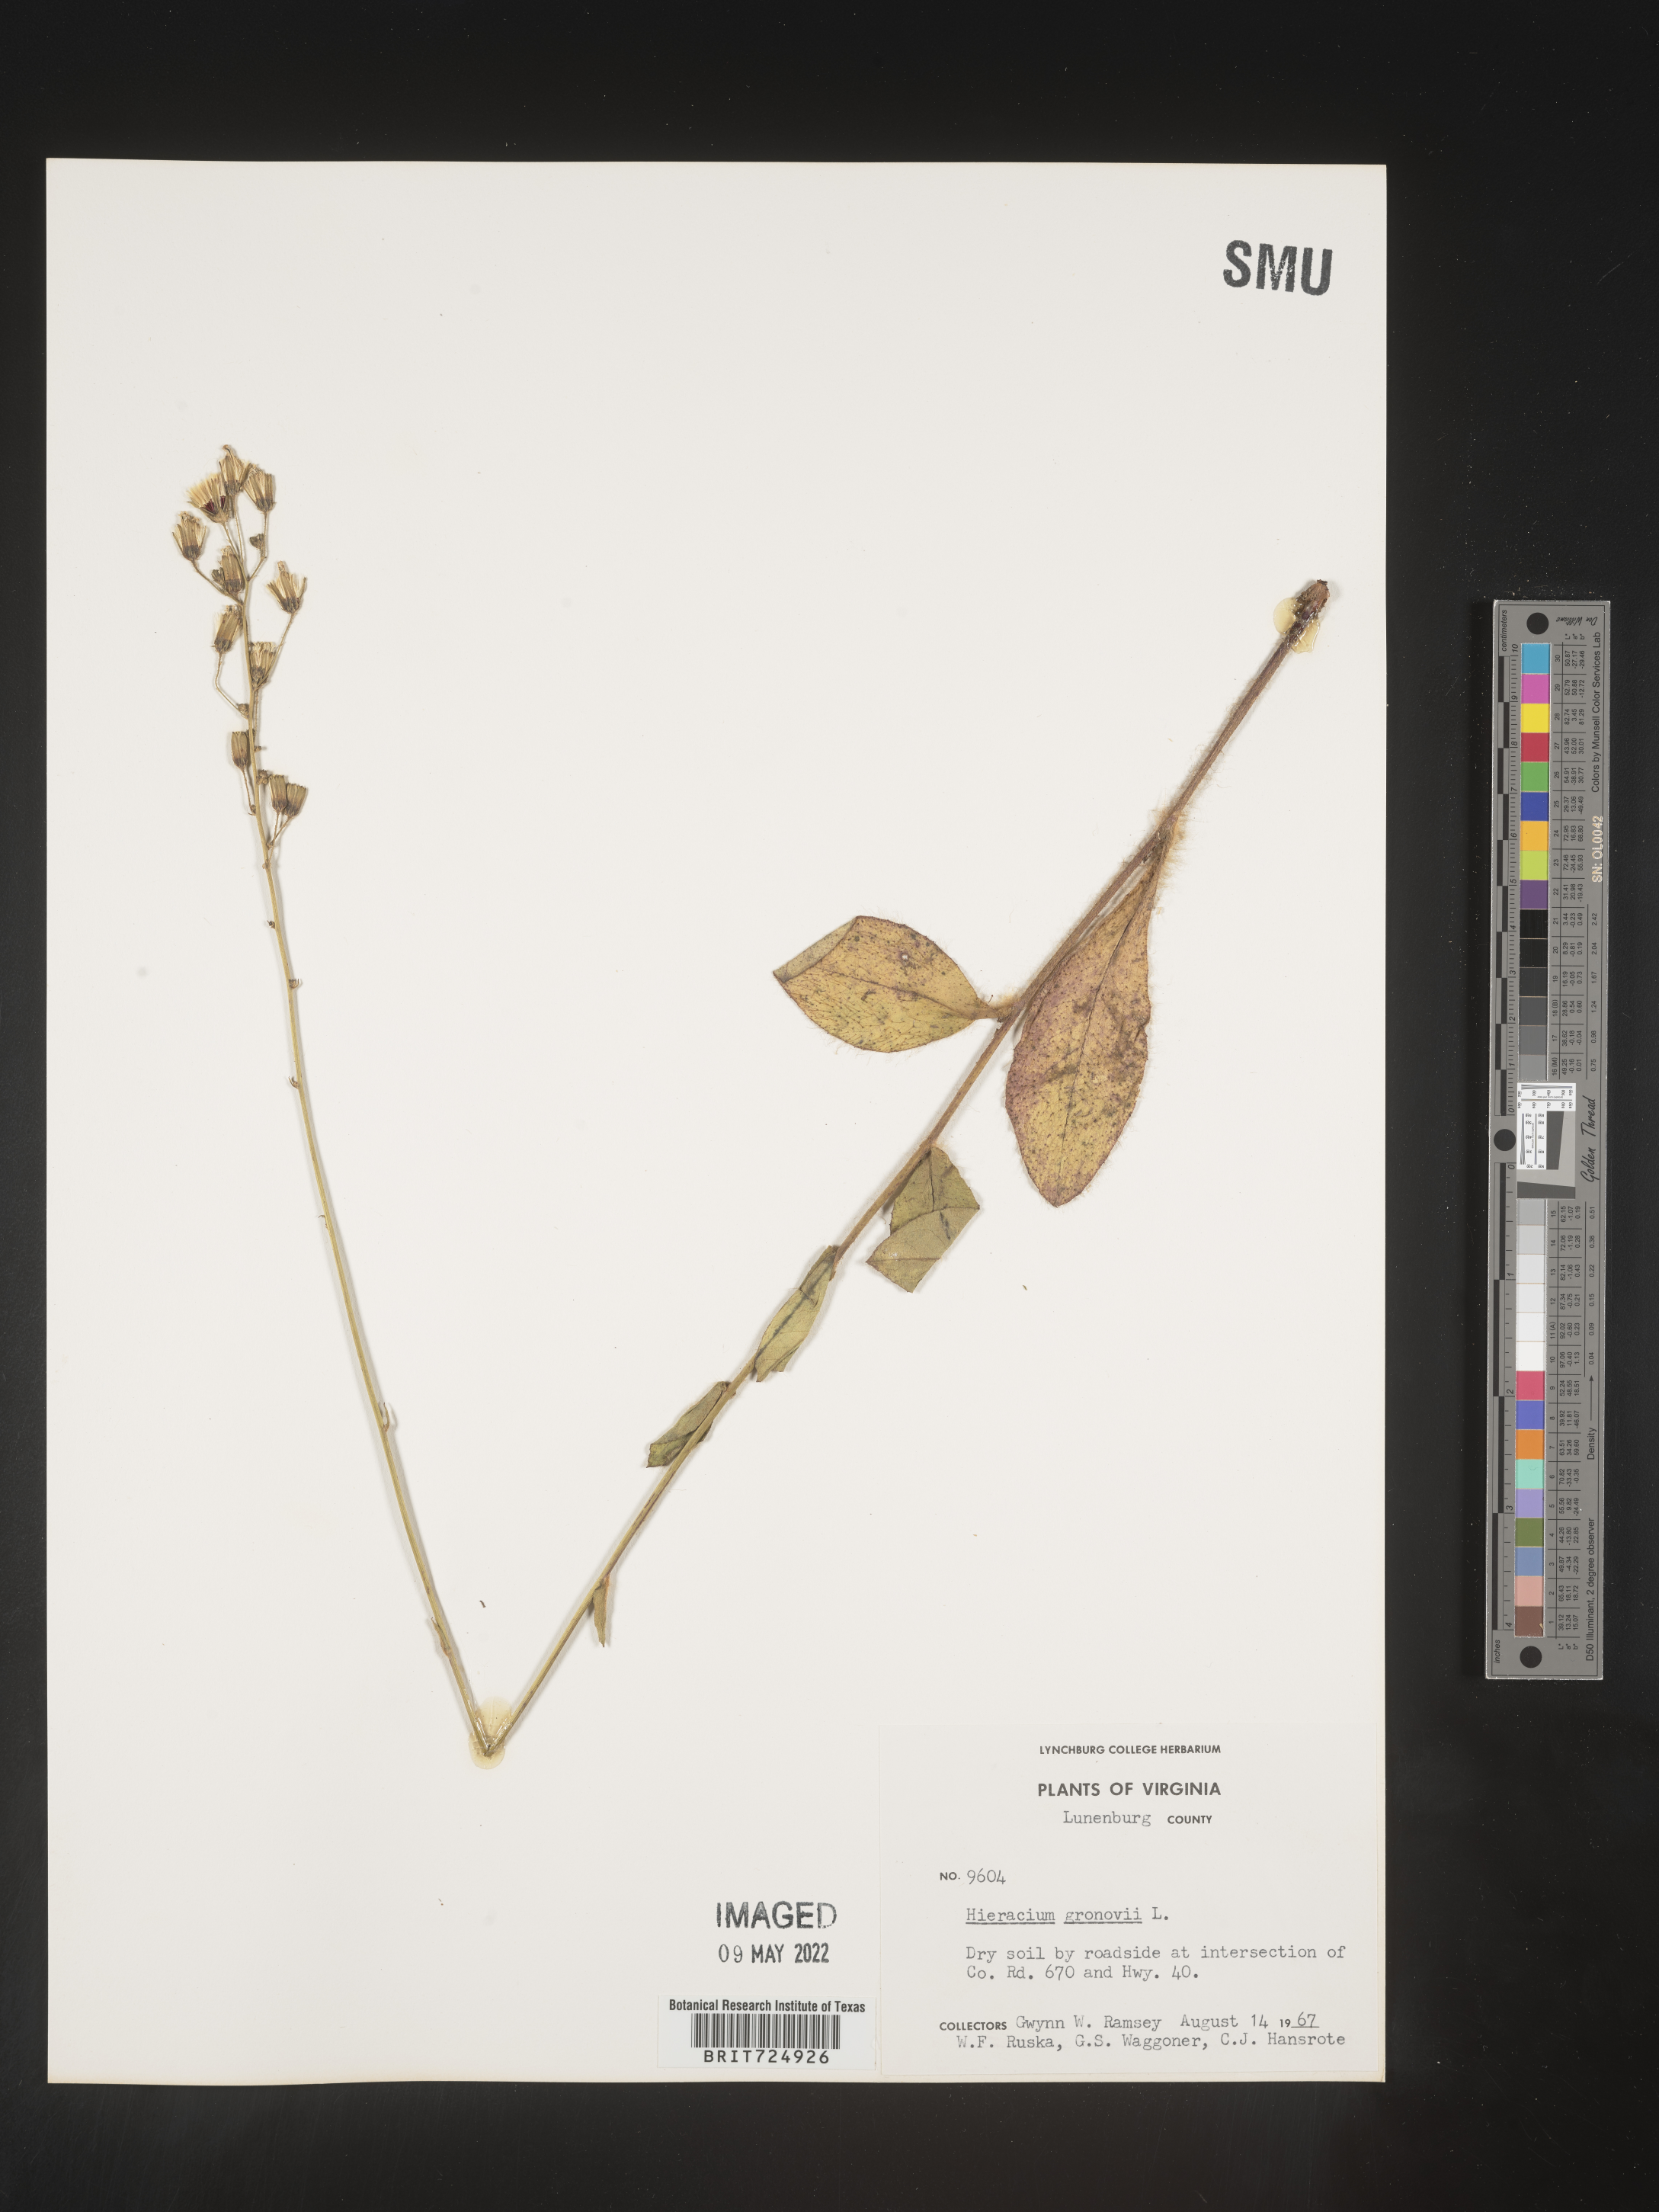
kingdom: Plantae
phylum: Tracheophyta
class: Magnoliopsida
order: Asterales
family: Asteraceae
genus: Hieracium
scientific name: Hieracium gronovii
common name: Beaked hawkweed
